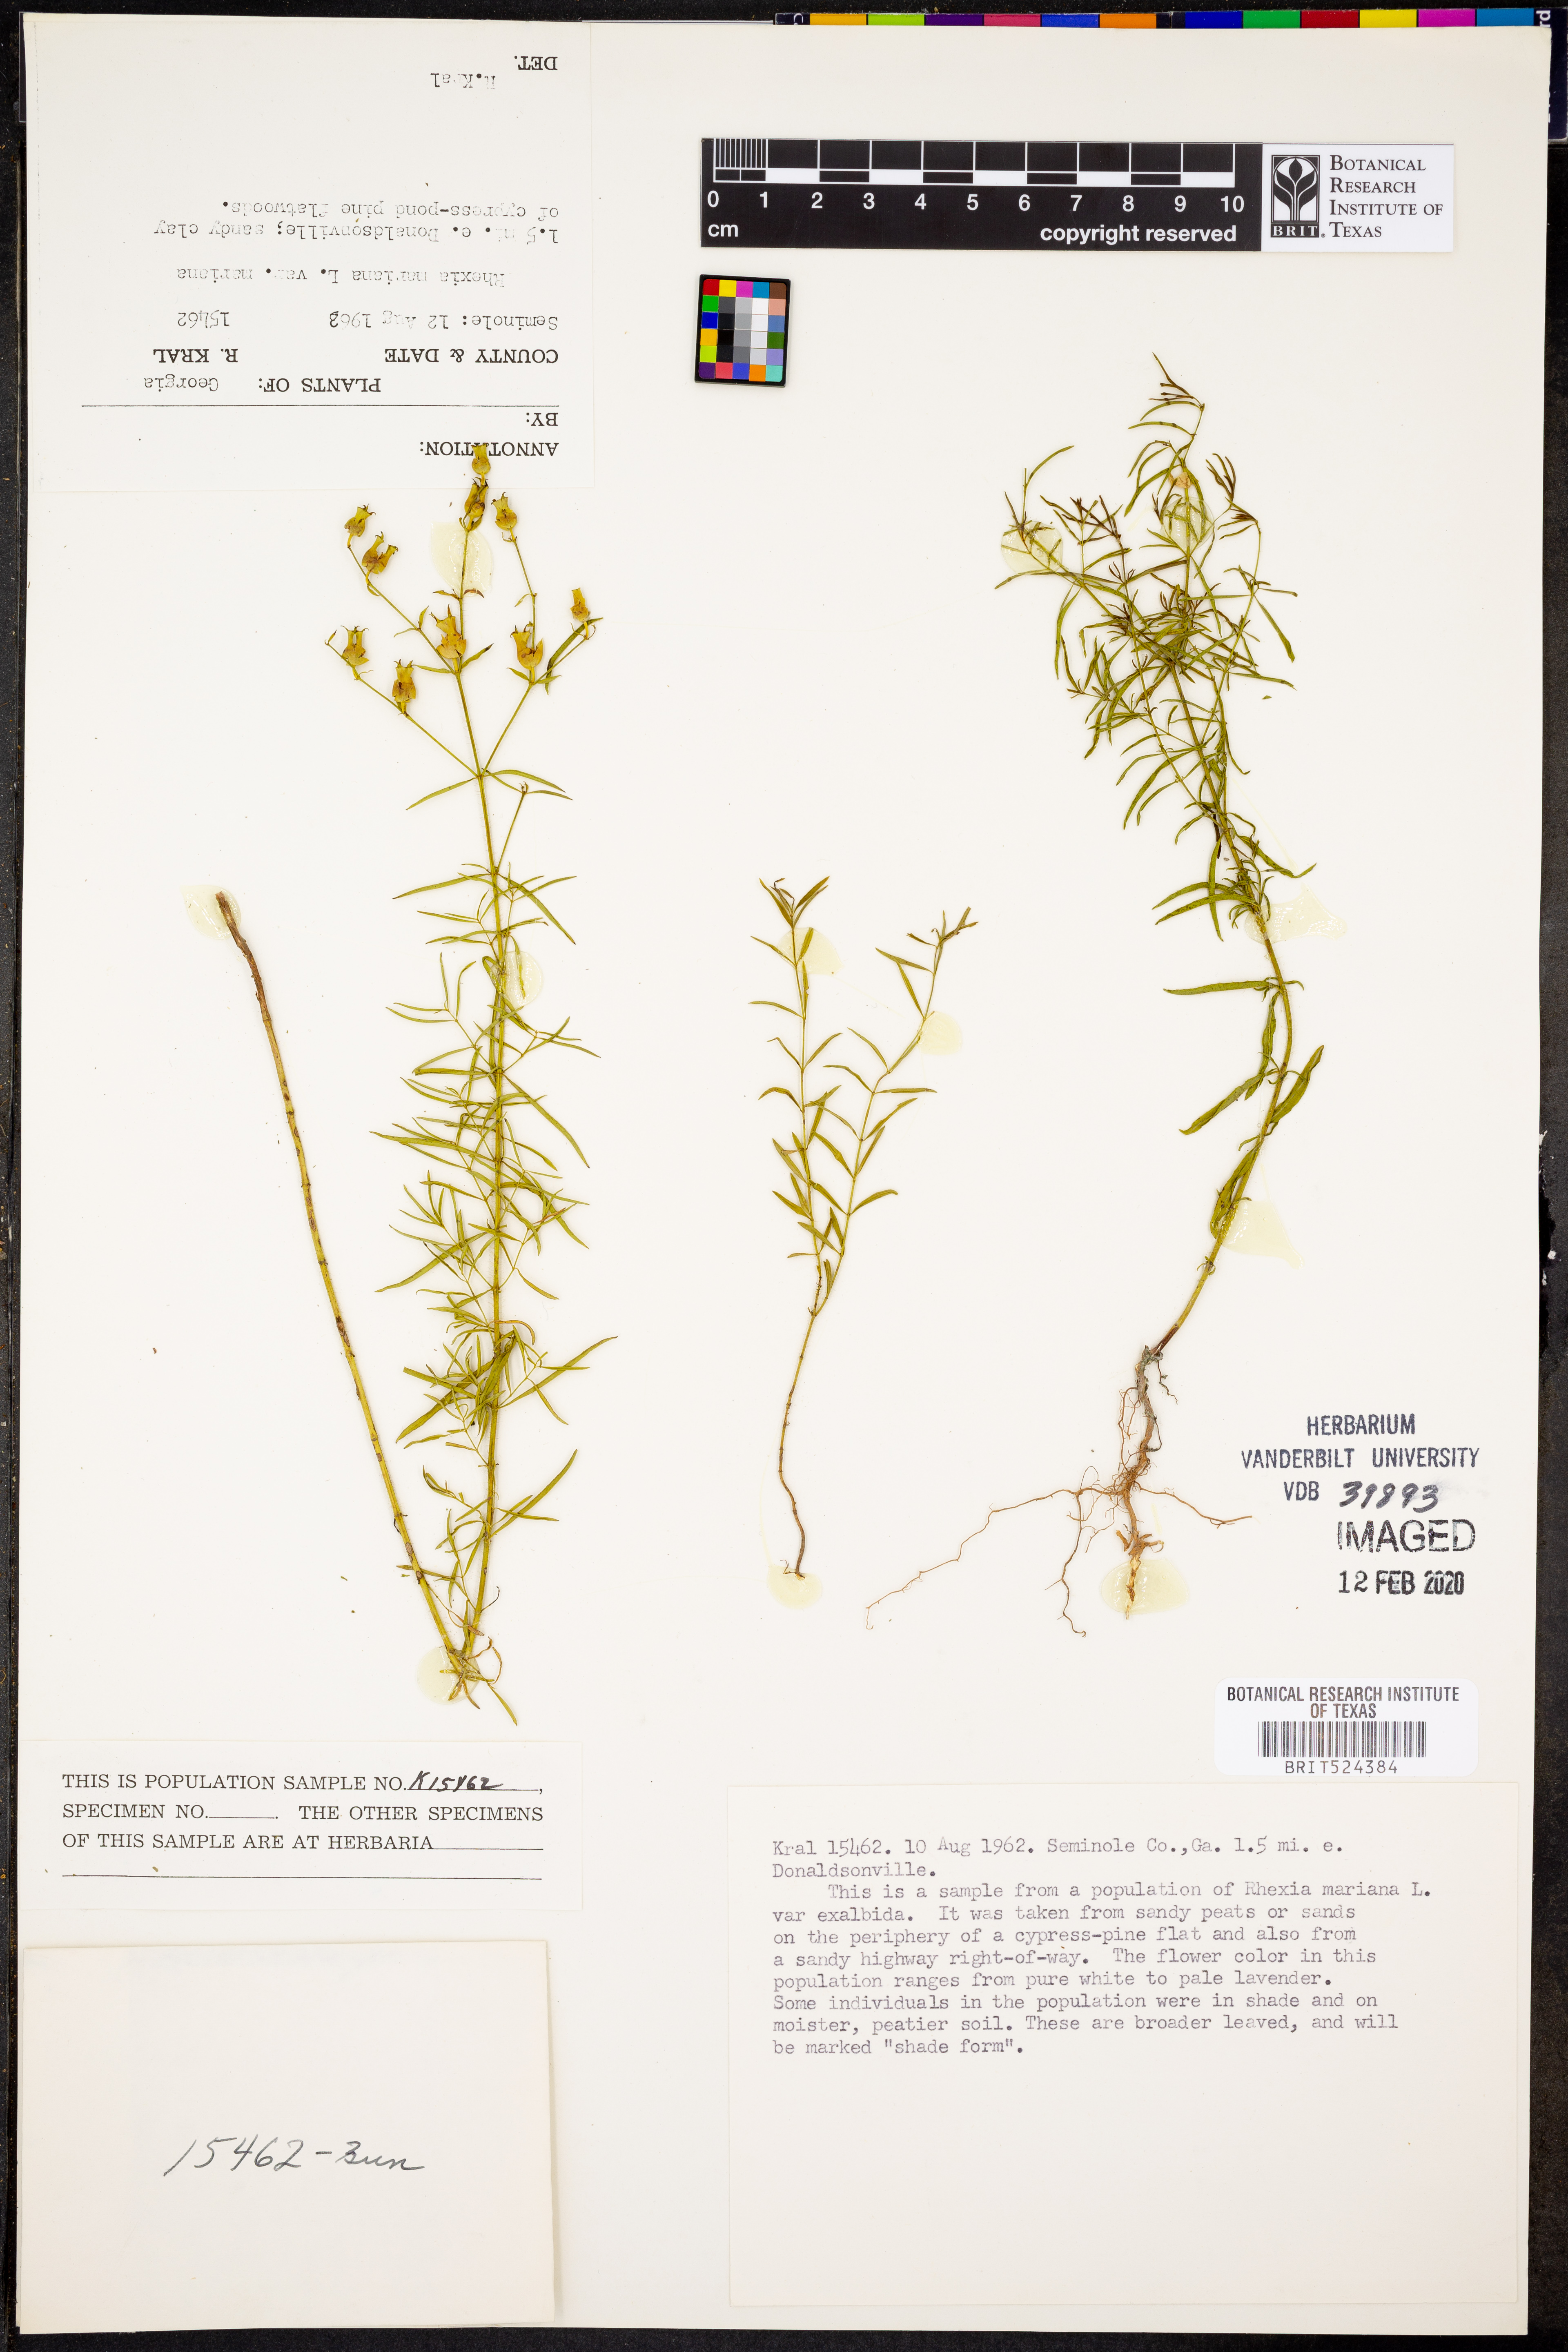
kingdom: Plantae
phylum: Tracheophyta
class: Magnoliopsida
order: Myrtales
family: Melastomataceae
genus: Rhexia
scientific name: Rhexia mariana
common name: Dull meadow-pitcher
